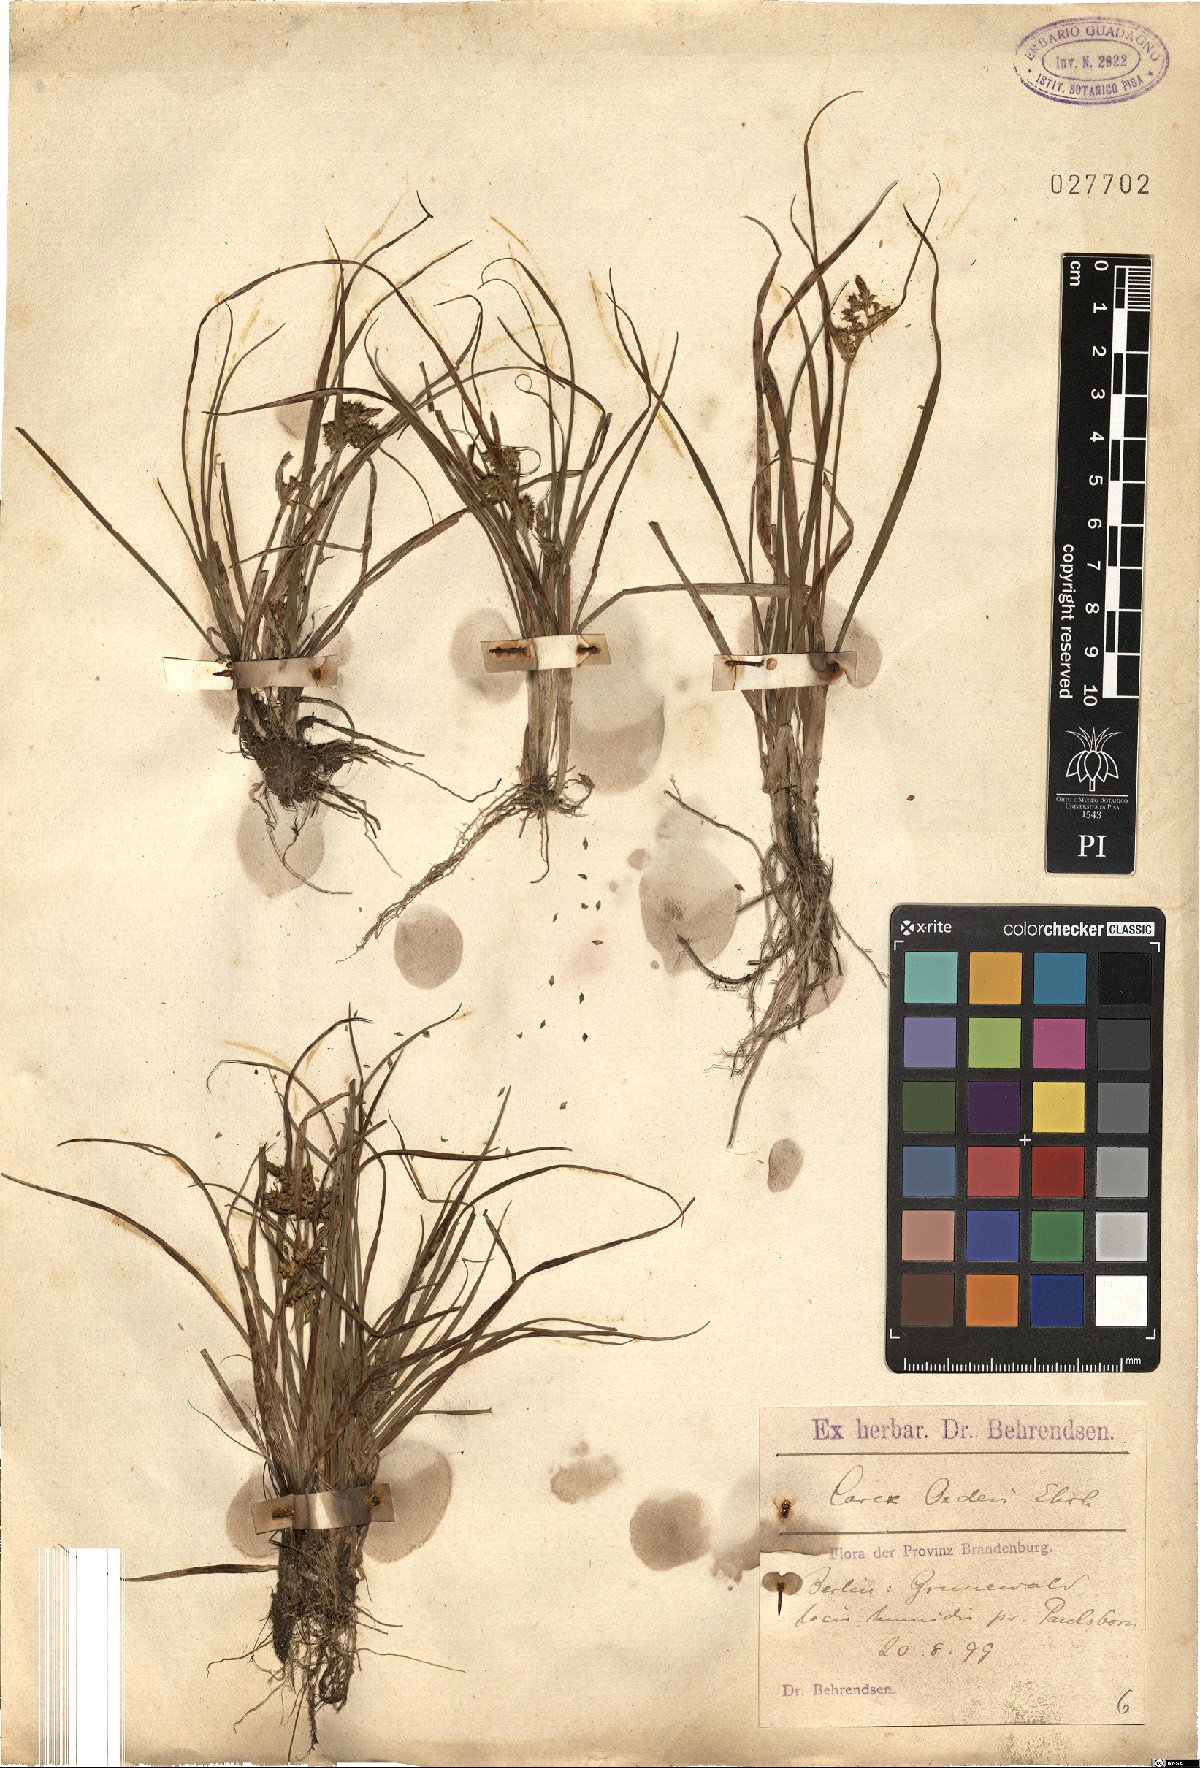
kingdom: Plantae
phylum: Tracheophyta
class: Liliopsida
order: Poales
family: Cyperaceae
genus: Carex
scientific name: Carex oederi
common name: Common & small-fruited yellow-sedge
